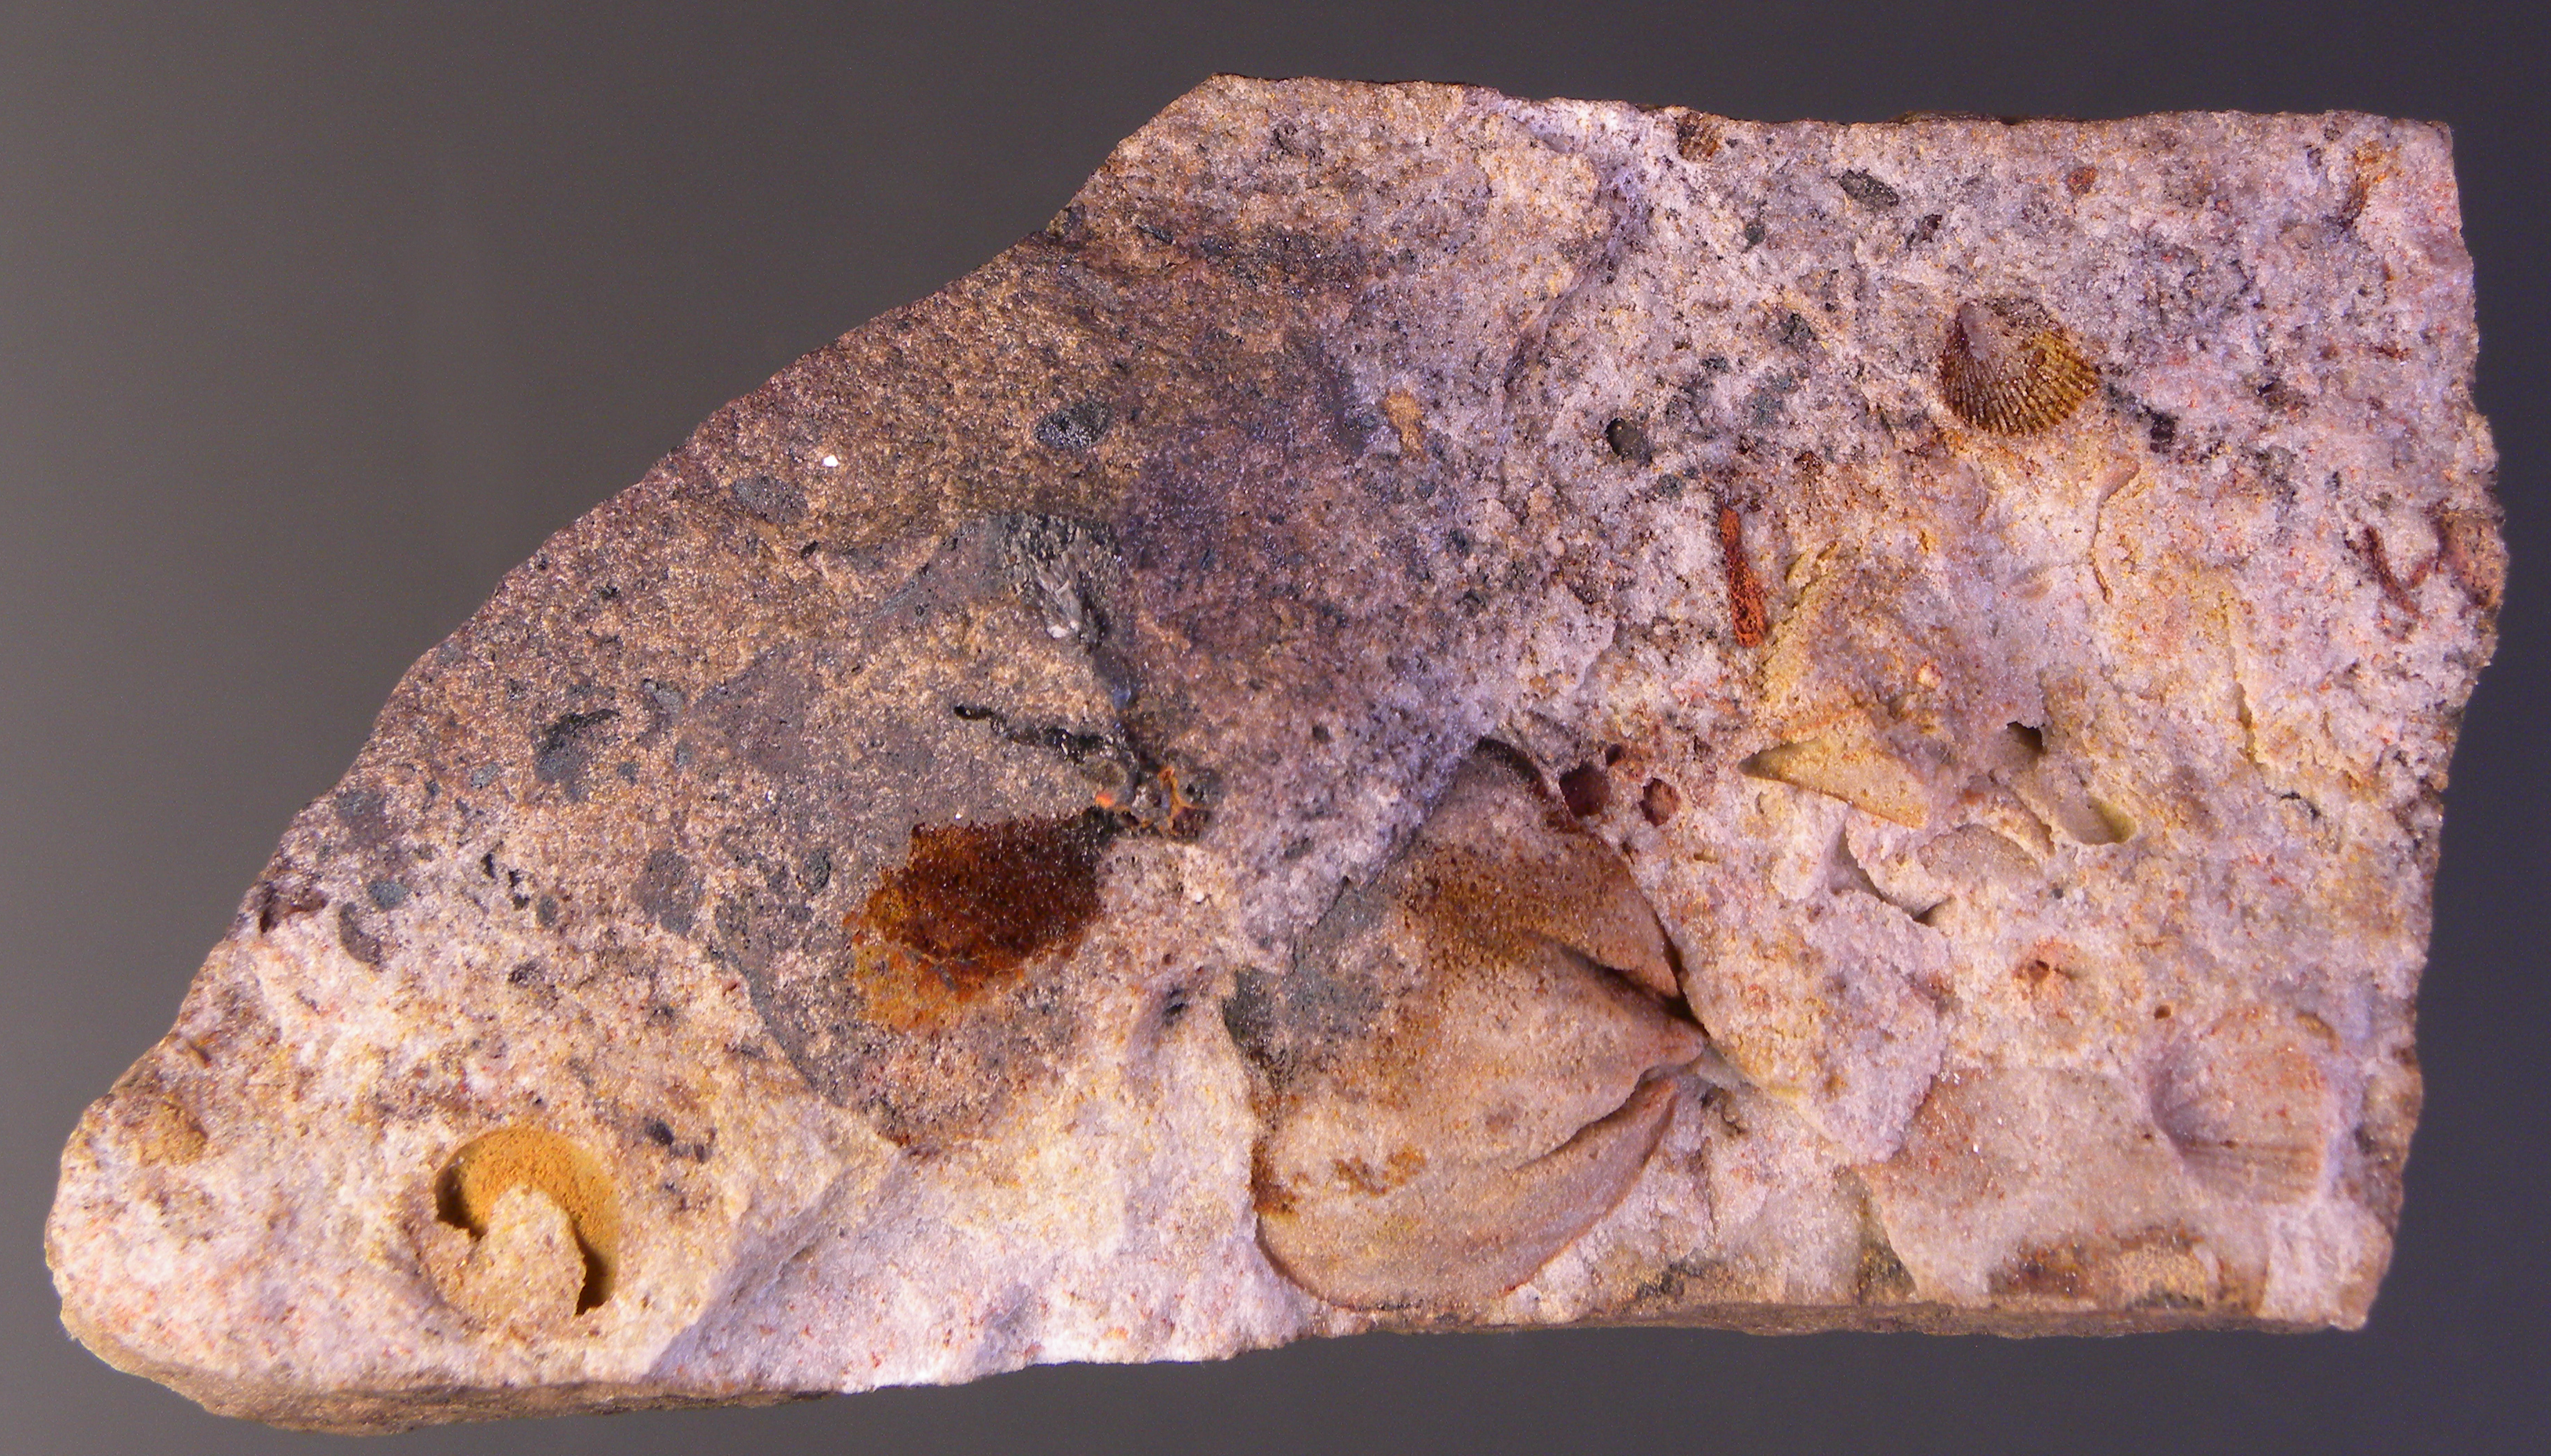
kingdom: Animalia
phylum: Brachiopoda
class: Rhynchonellata
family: Schizophoriidae
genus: Schizophoria
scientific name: Schizophoria
